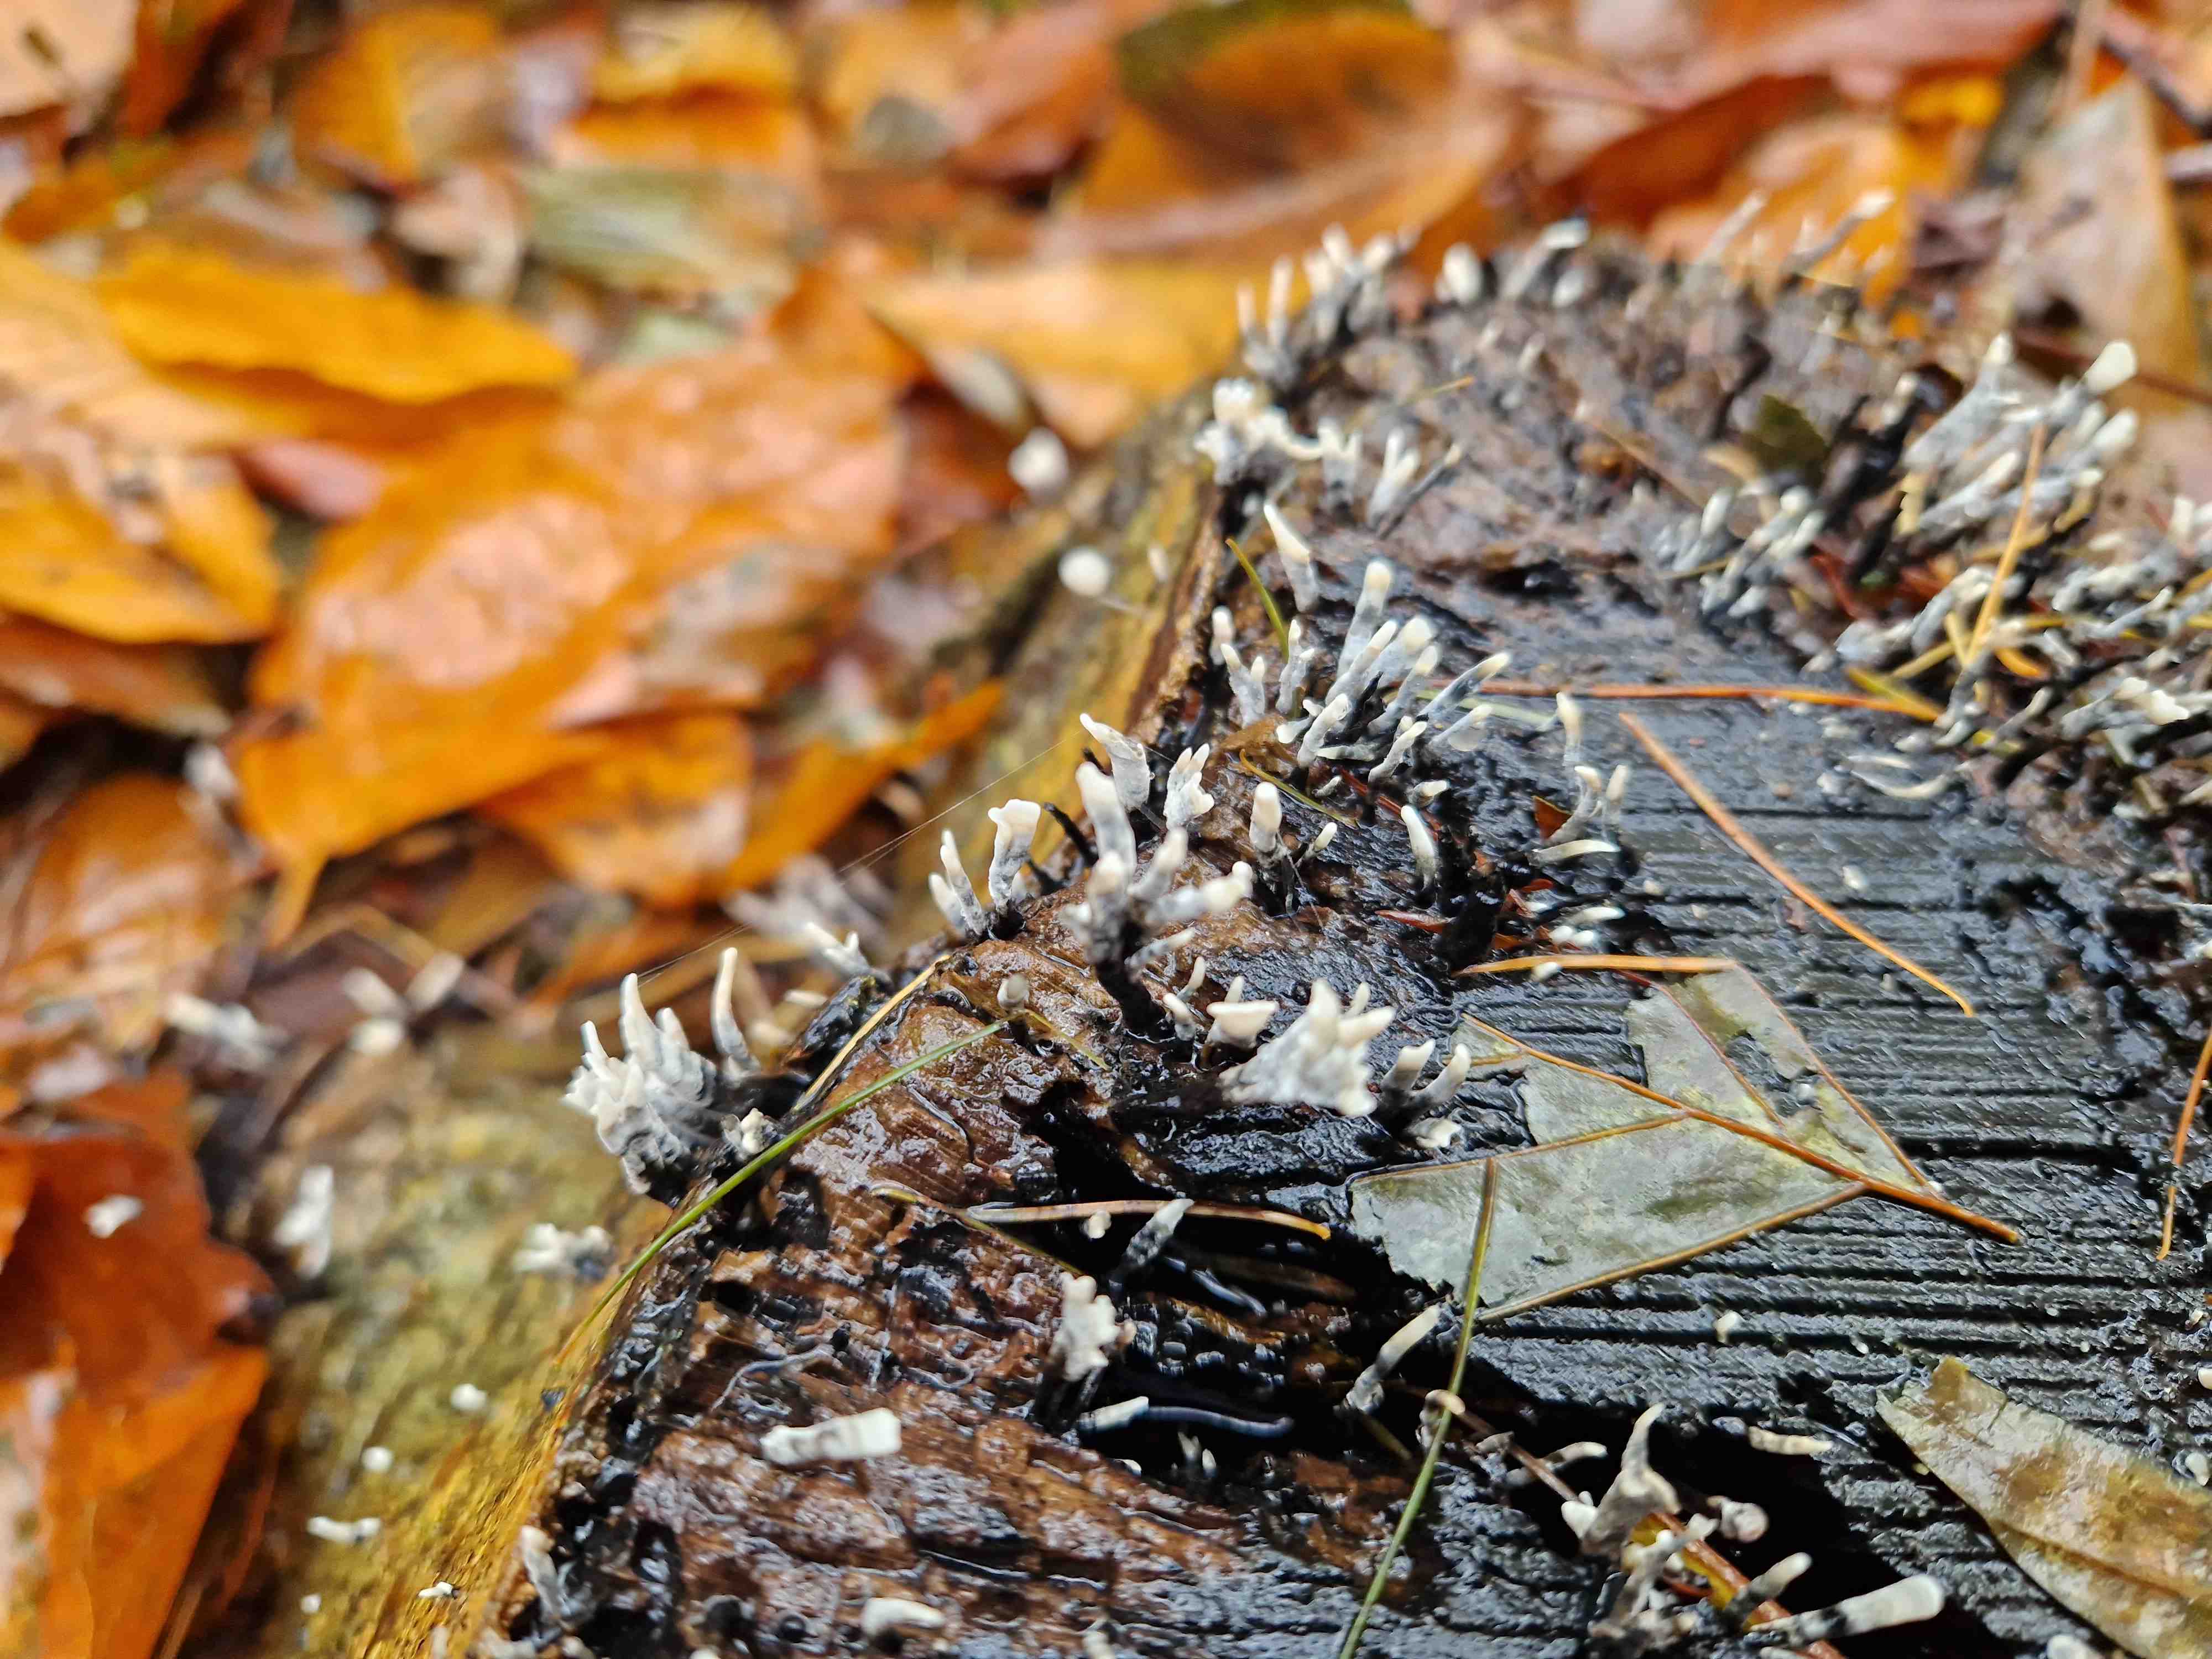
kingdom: Fungi
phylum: Ascomycota
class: Sordariomycetes
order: Xylariales
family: Xylariaceae
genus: Xylaria
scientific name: Xylaria hypoxylon
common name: grenet stødsvamp
